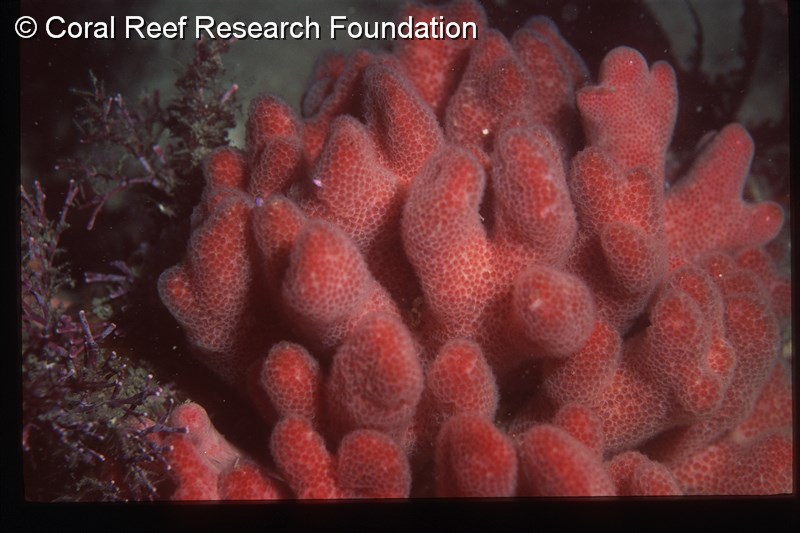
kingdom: Animalia
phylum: Chordata
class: Ascidiacea
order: Aplousobranchia
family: Pseudodistomidae
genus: Pseudodistoma
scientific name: Pseudodistoma
